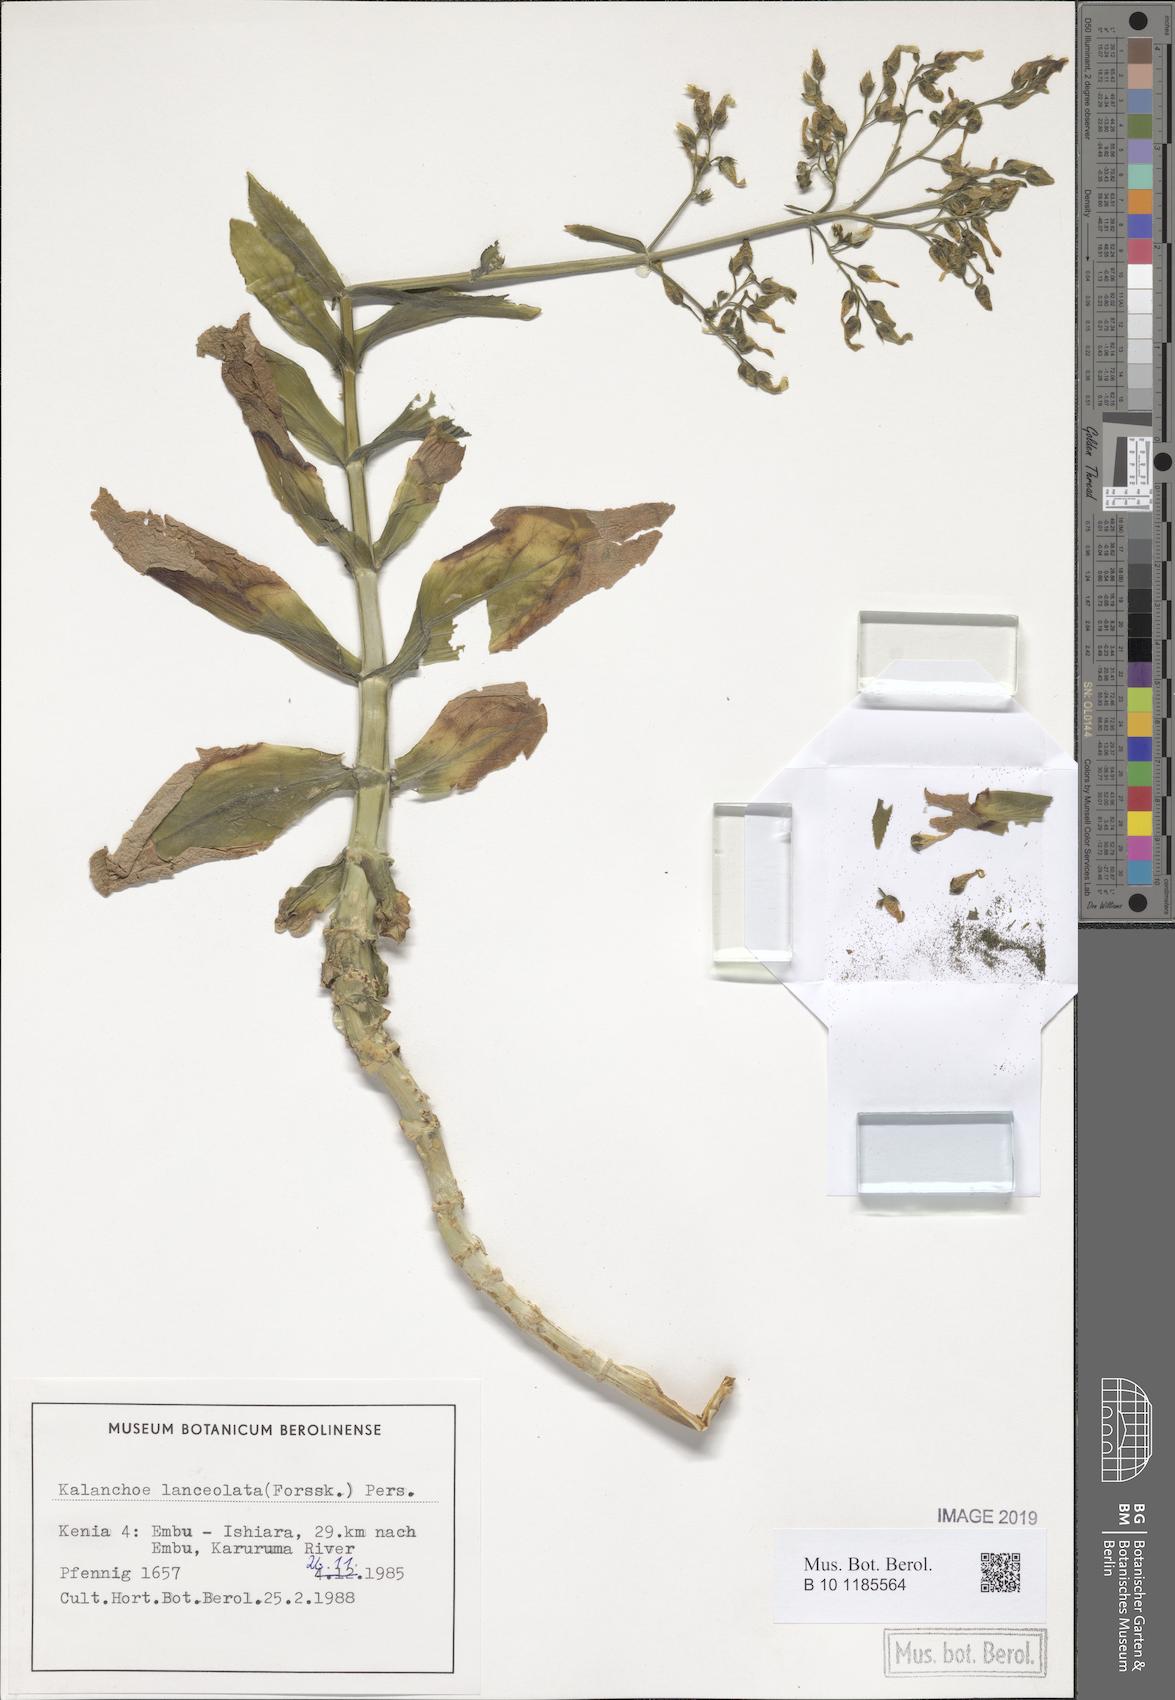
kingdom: Plantae
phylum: Tracheophyta
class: Magnoliopsida
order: Saxifragales
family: Crassulaceae
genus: Kalanchoe
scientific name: Kalanchoe lanceolata
